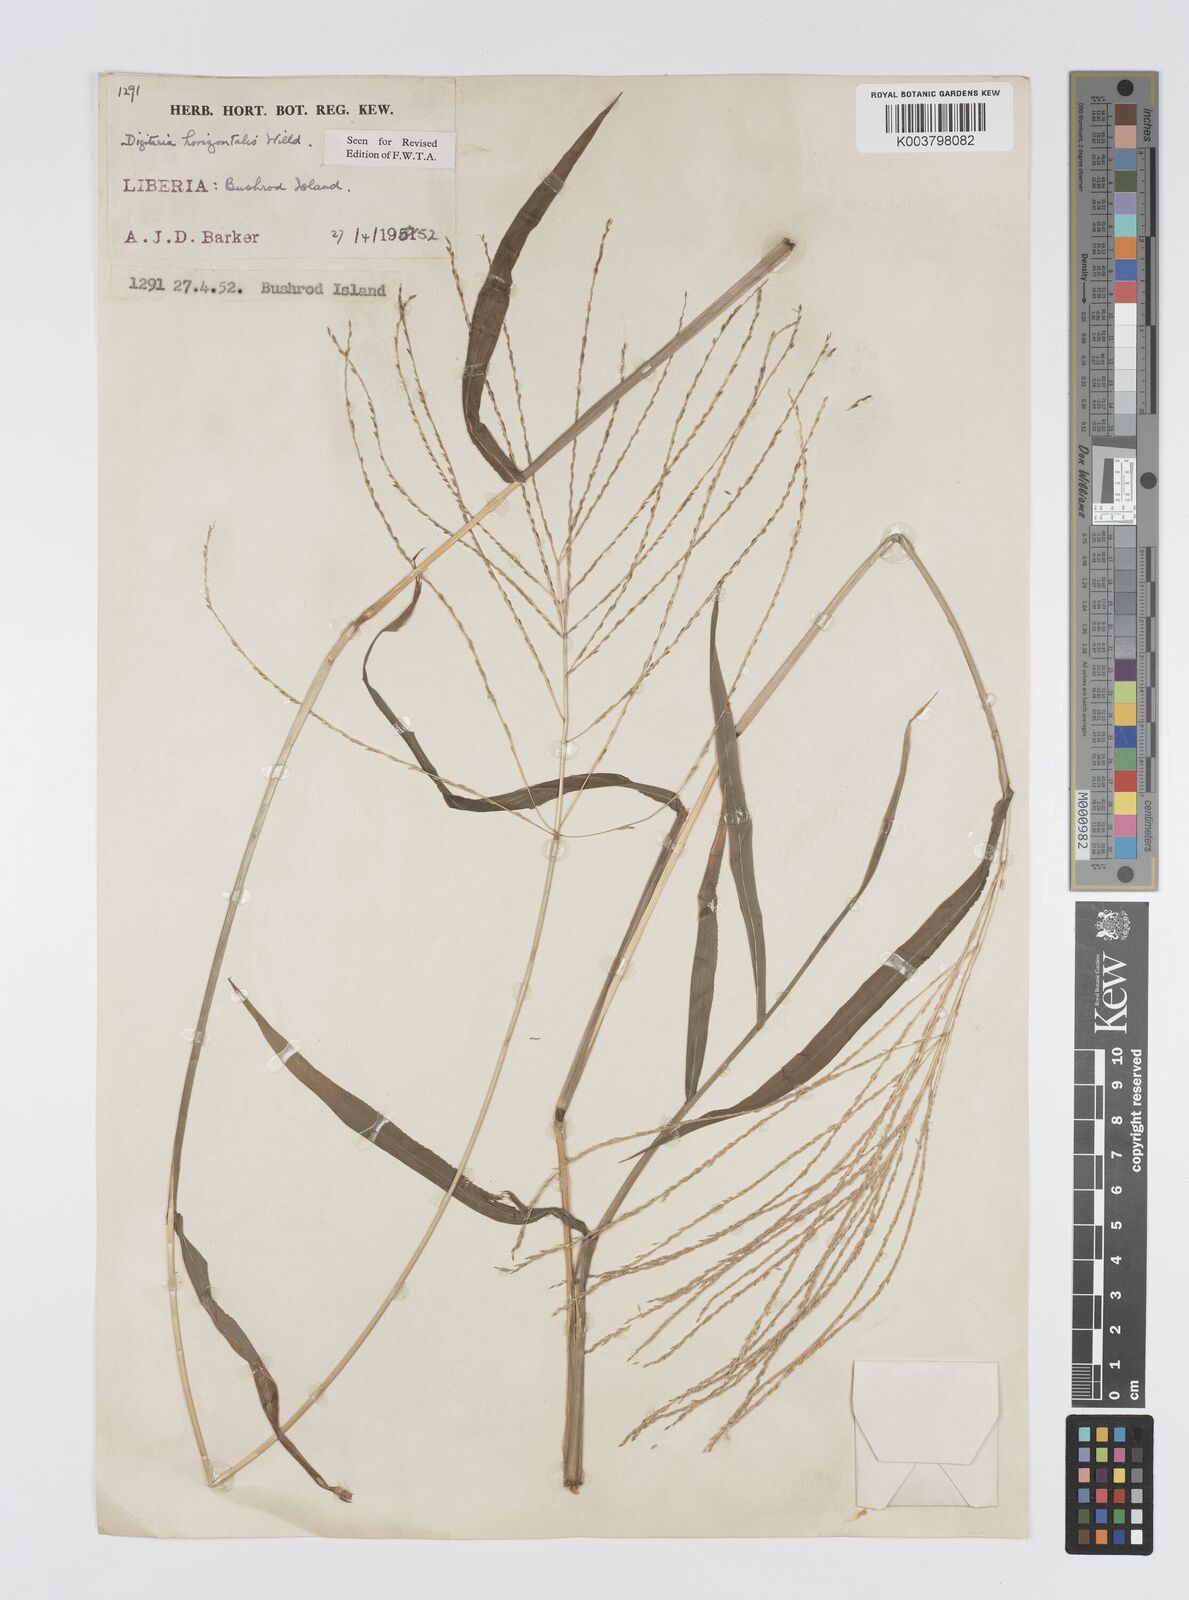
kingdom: Plantae
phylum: Tracheophyta
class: Liliopsida
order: Poales
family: Poaceae
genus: Digitaria
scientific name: Digitaria horizontalis
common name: Jamaican crabgrass
